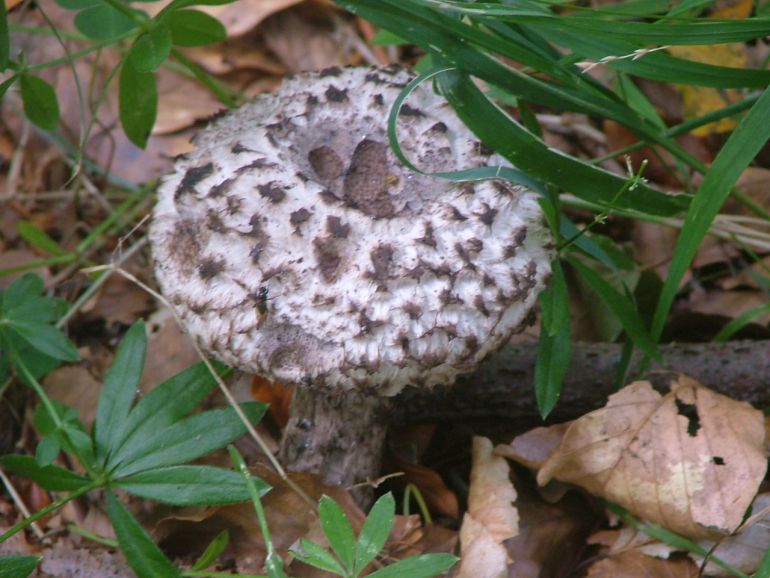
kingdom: Fungi
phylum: Basidiomycota
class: Agaricomycetes
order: Boletales
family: Boletaceae
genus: Strobilomyces
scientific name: Strobilomyces strobilaceus
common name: koglerørhat
